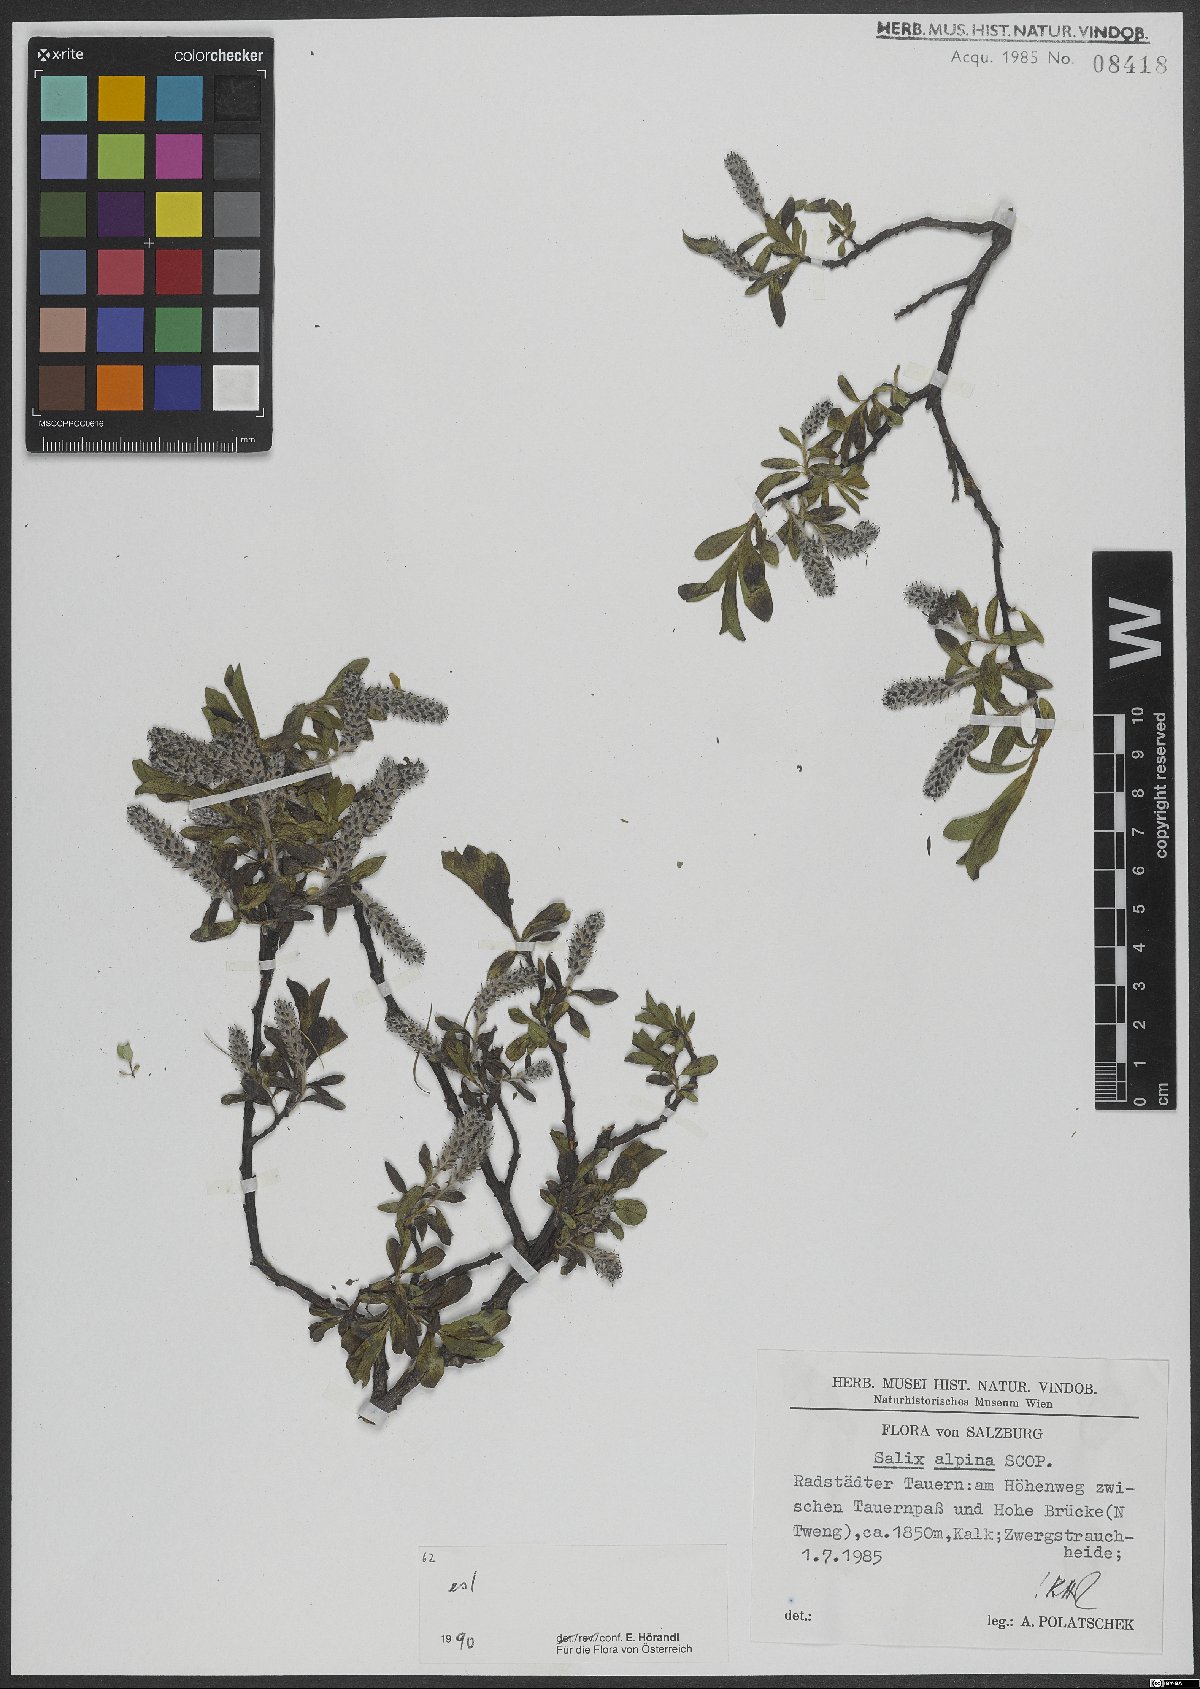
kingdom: Plantae
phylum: Tracheophyta
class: Magnoliopsida
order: Malpighiales
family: Salicaceae
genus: Salix
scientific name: Salix alpina
